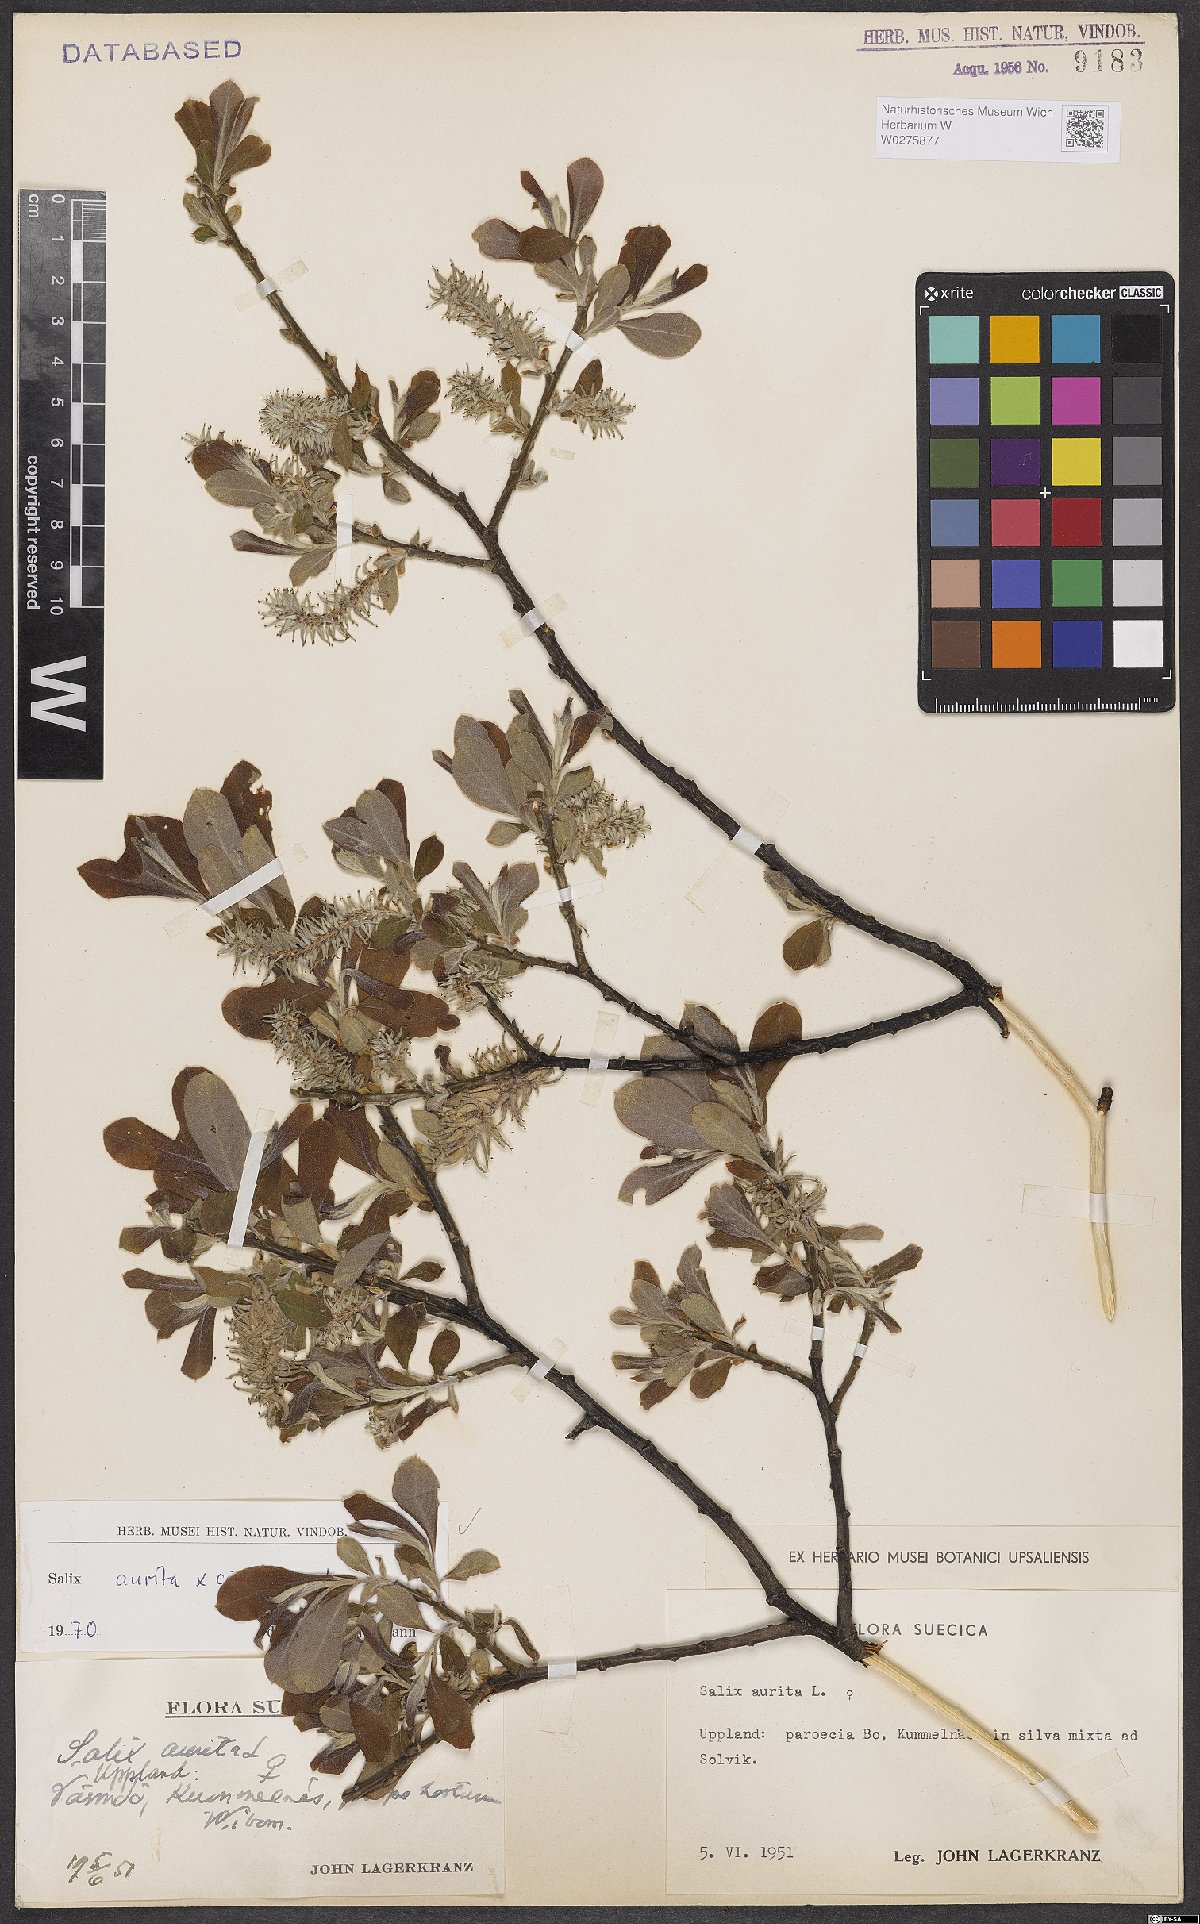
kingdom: Plantae
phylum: Tracheophyta
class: Magnoliopsida
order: Malpighiales
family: Salicaceae
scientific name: Salicaceae
